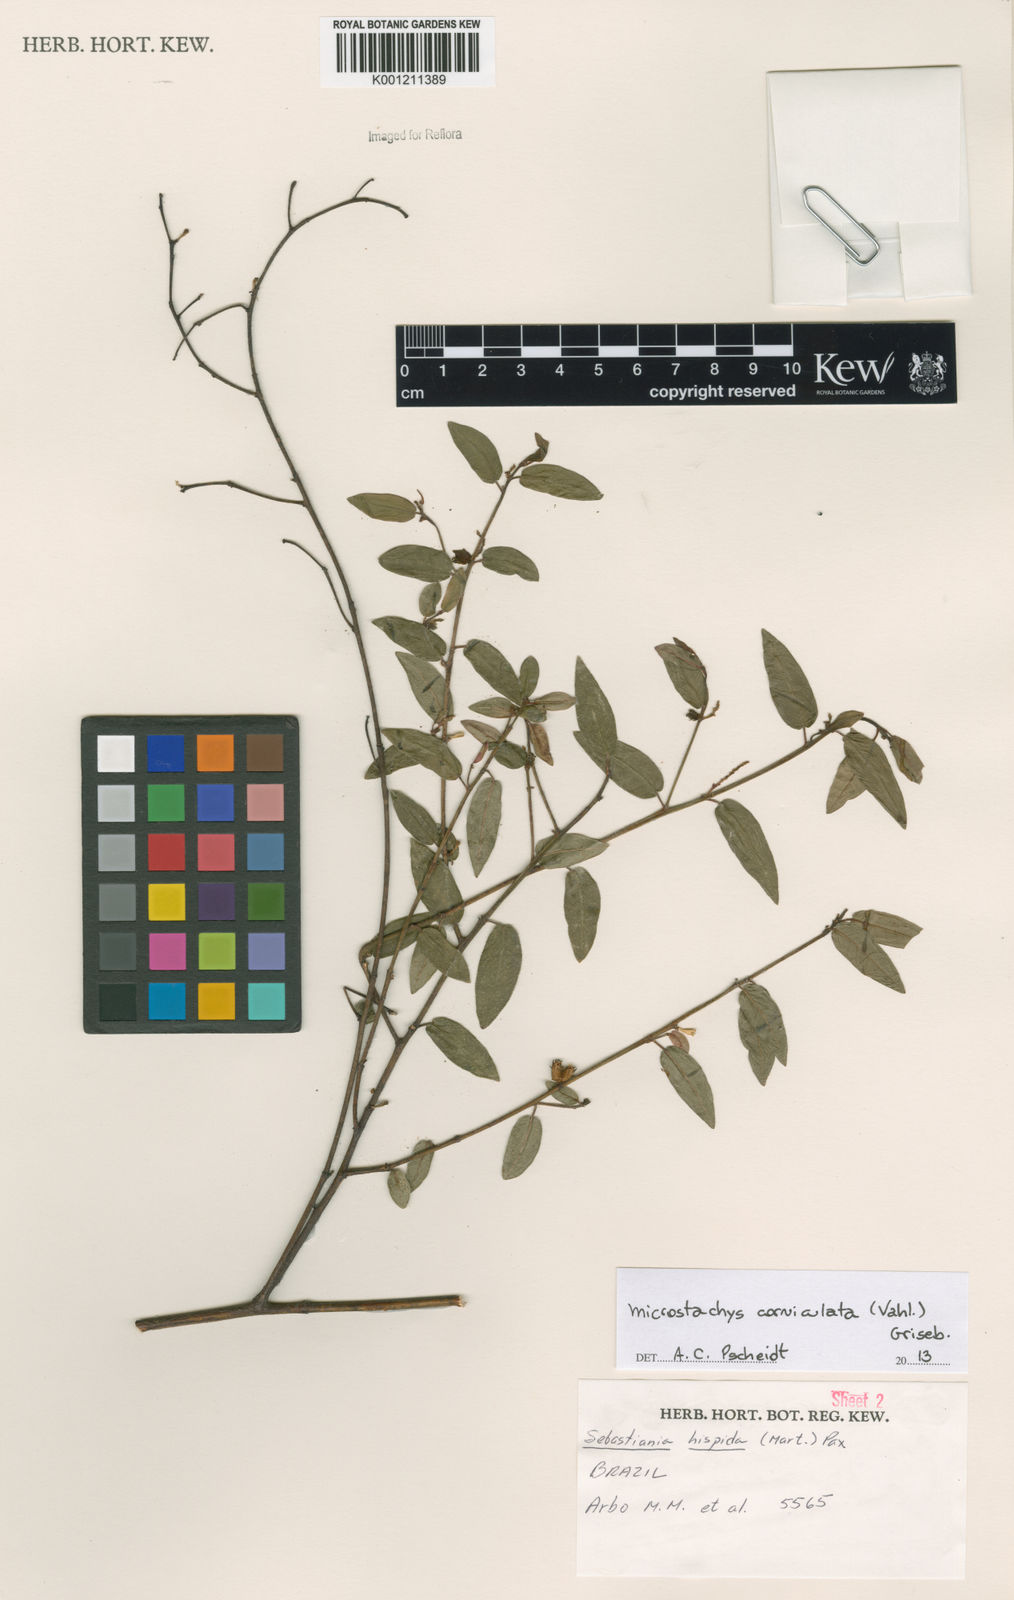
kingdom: Plantae
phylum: Tracheophyta
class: Magnoliopsida
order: Malpighiales
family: Euphorbiaceae
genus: Microstachys
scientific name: Microstachys corniculata
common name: Hato tejas
